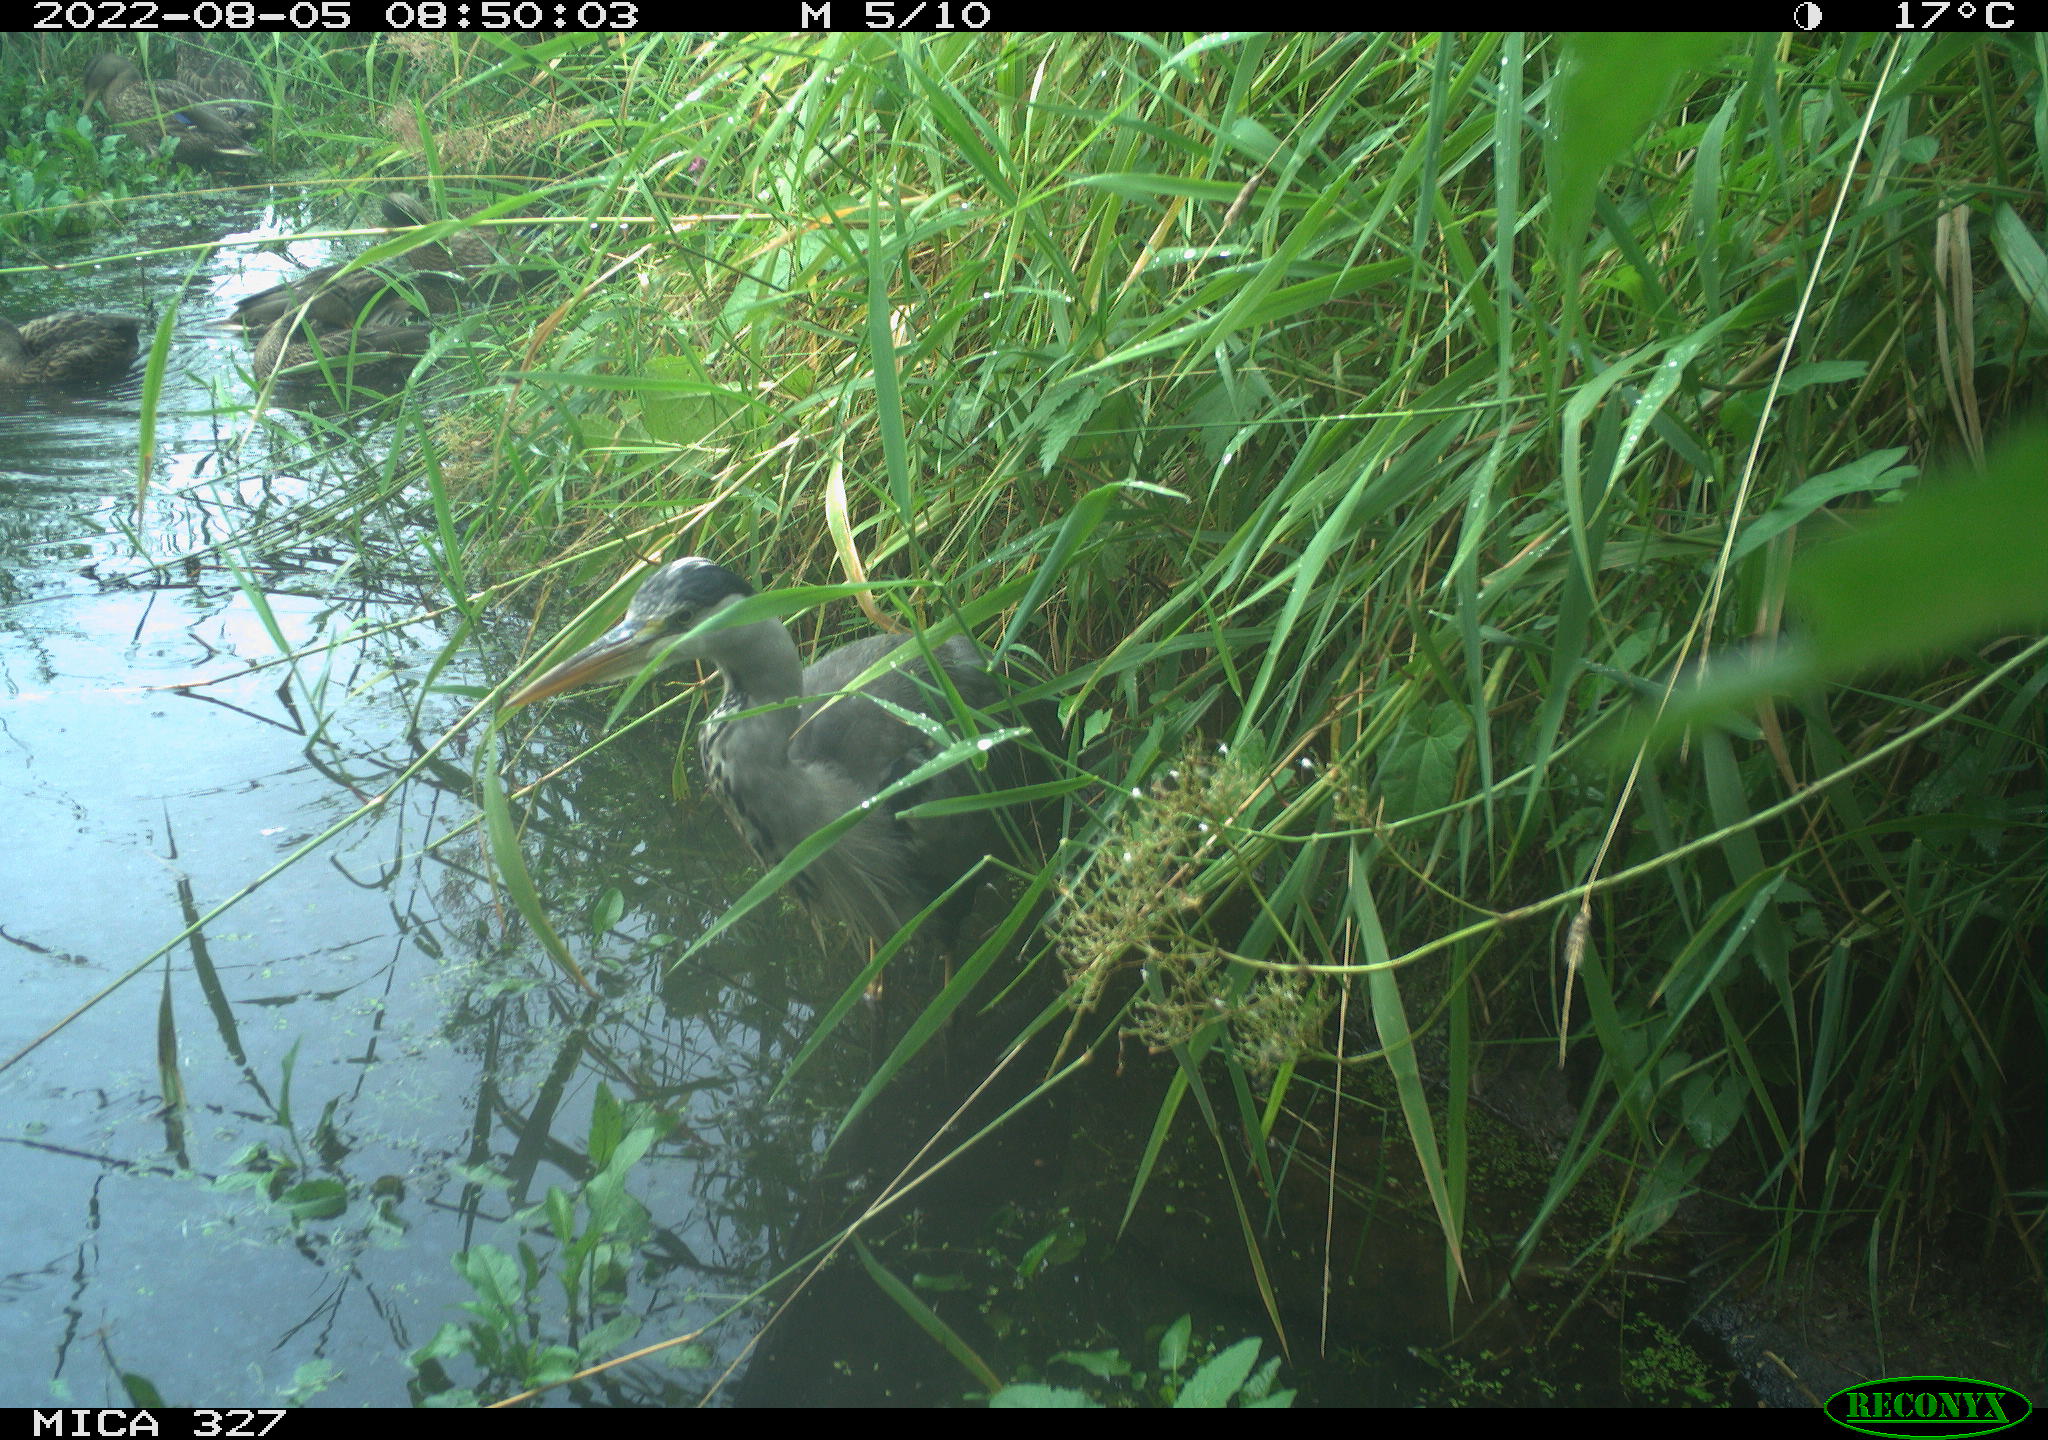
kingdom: Animalia
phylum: Chordata
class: Aves
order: Pelecaniformes
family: Ardeidae
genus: Ardea
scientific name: Ardea cinerea
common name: Grey heron
